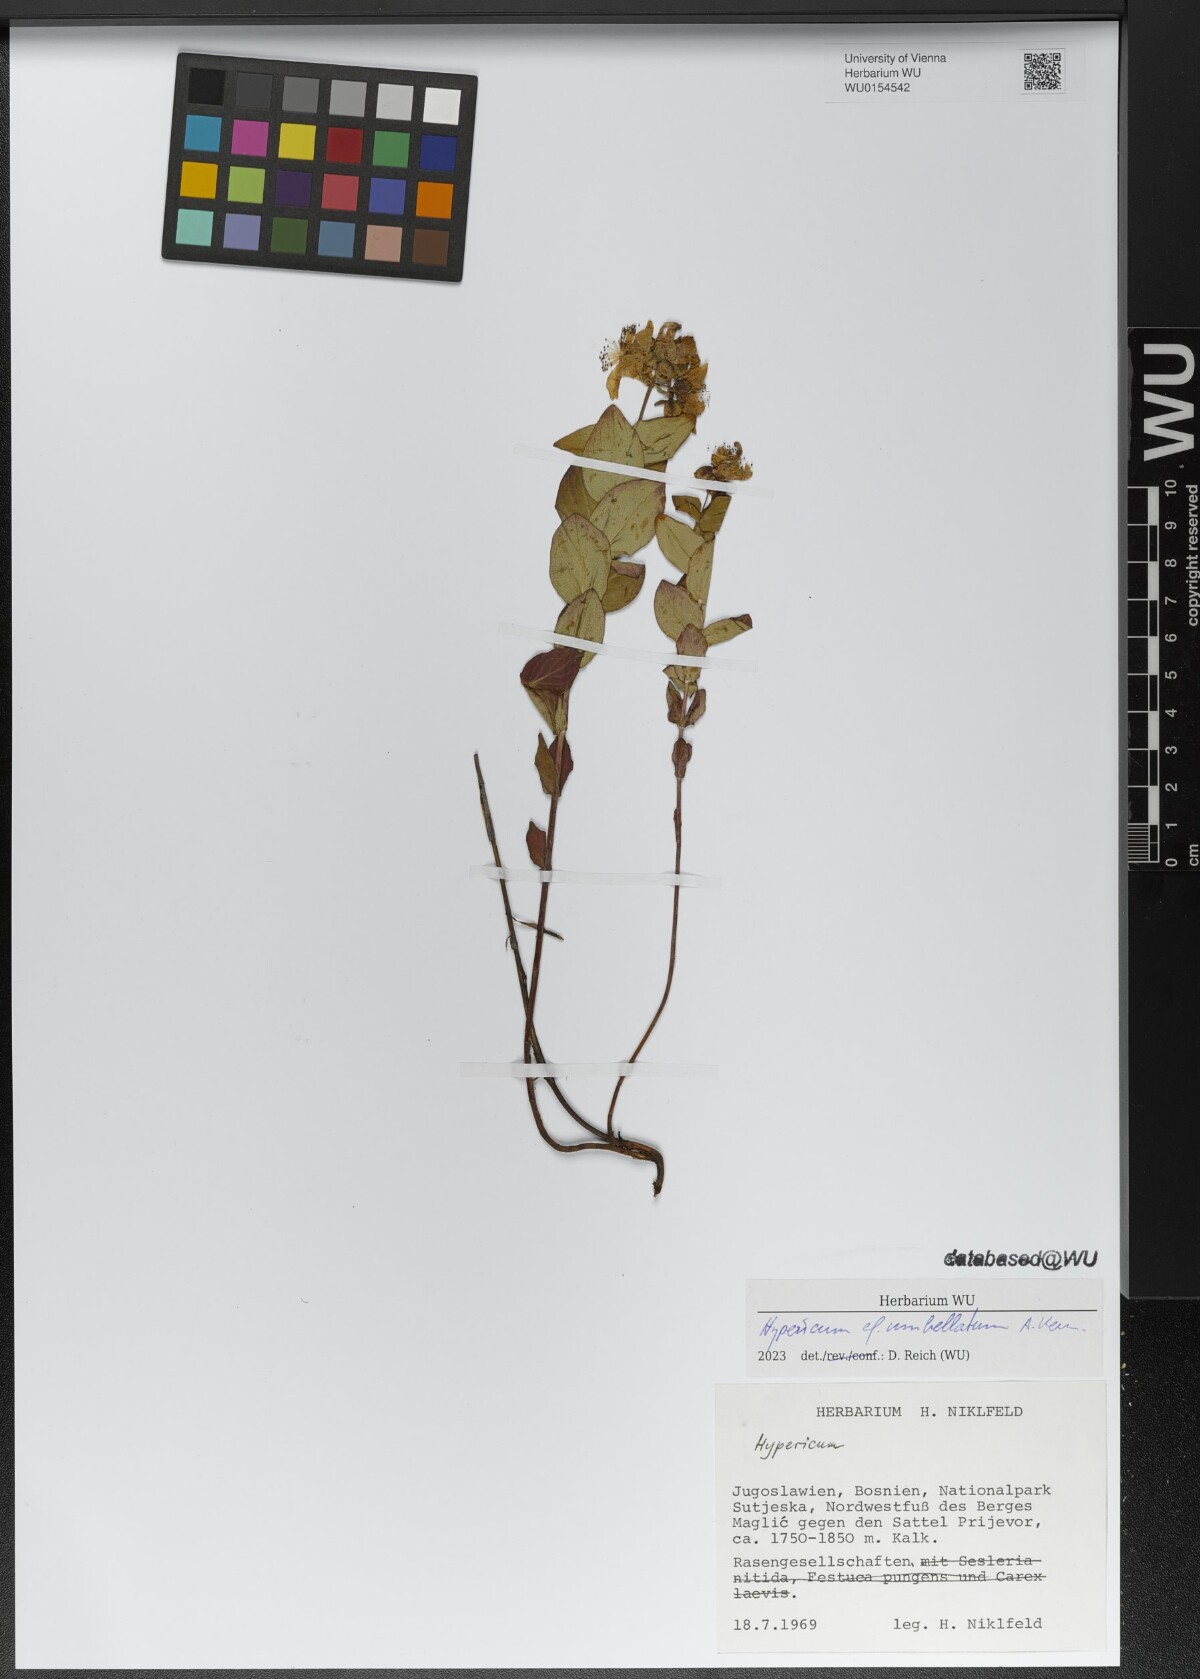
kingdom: Plantae
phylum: Tracheophyta
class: Magnoliopsida
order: Malpighiales
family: Hypericaceae
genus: Hypericum
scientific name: Hypericum umbellatum
